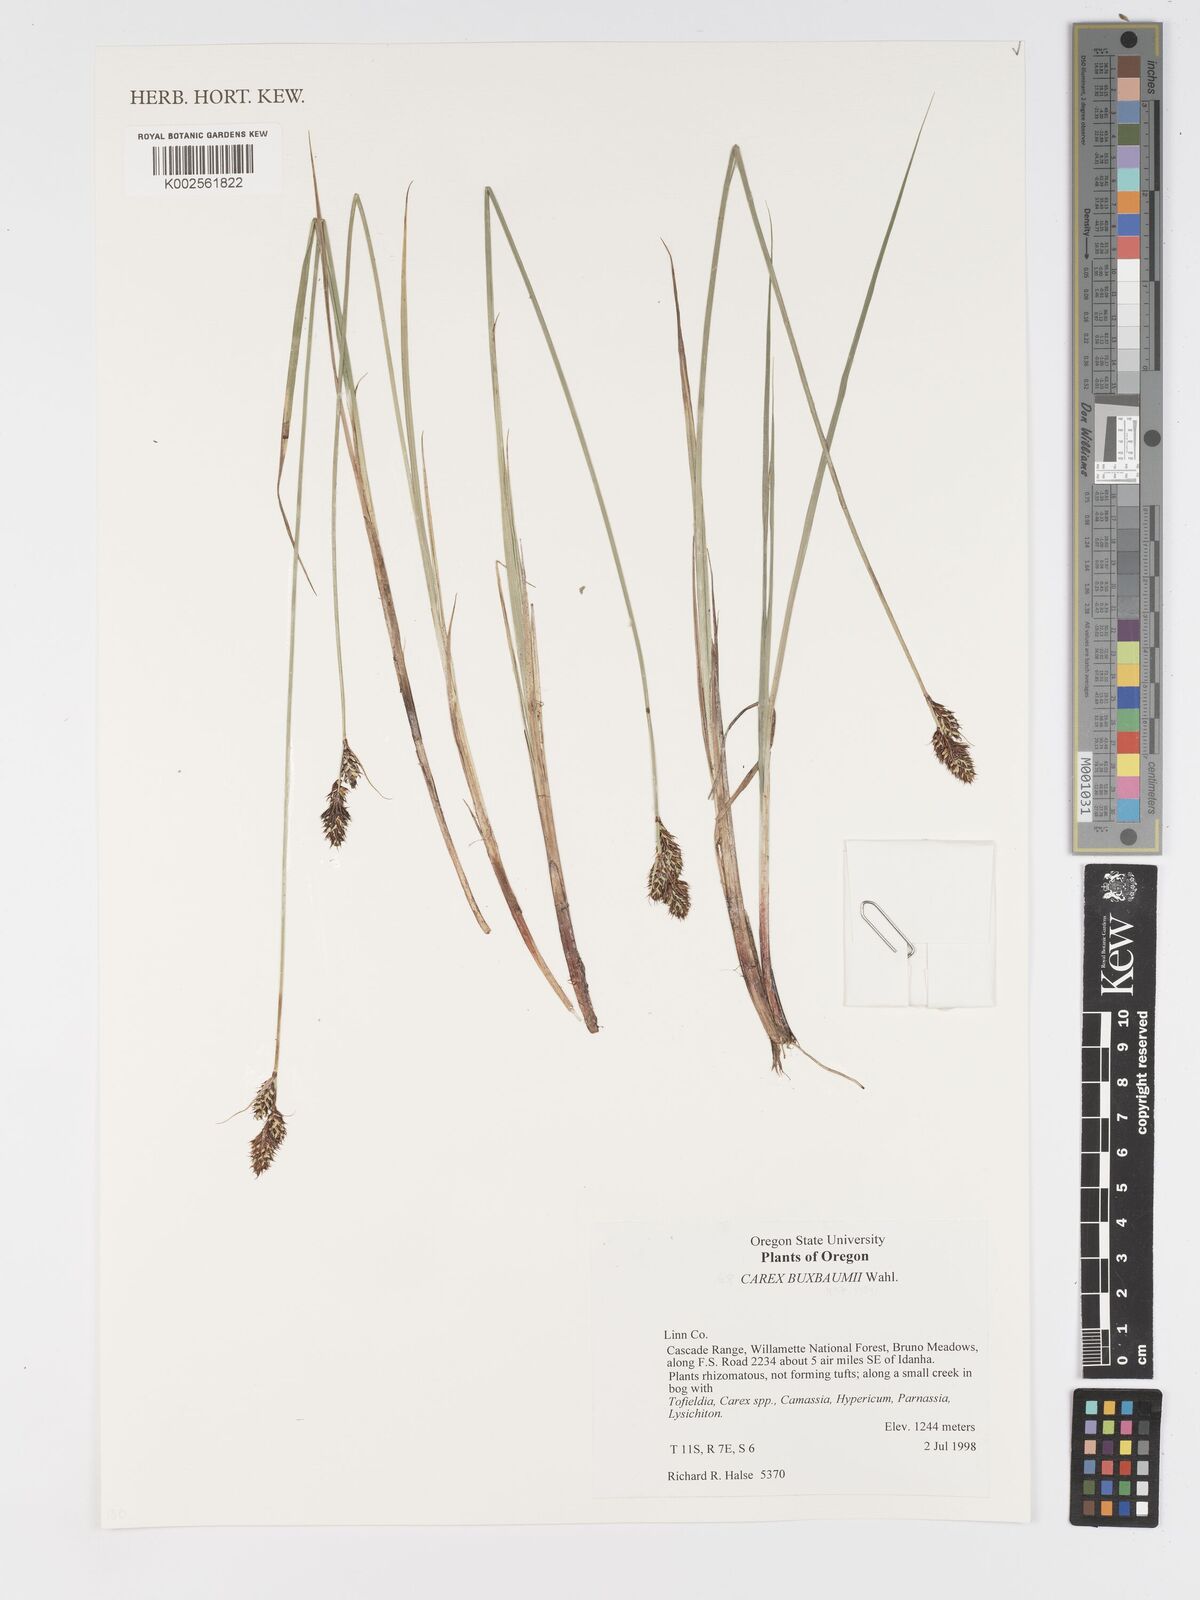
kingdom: Plantae
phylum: Tracheophyta
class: Liliopsida
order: Poales
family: Cyperaceae
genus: Carex
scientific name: Carex buxbaumii
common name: Club sedge
